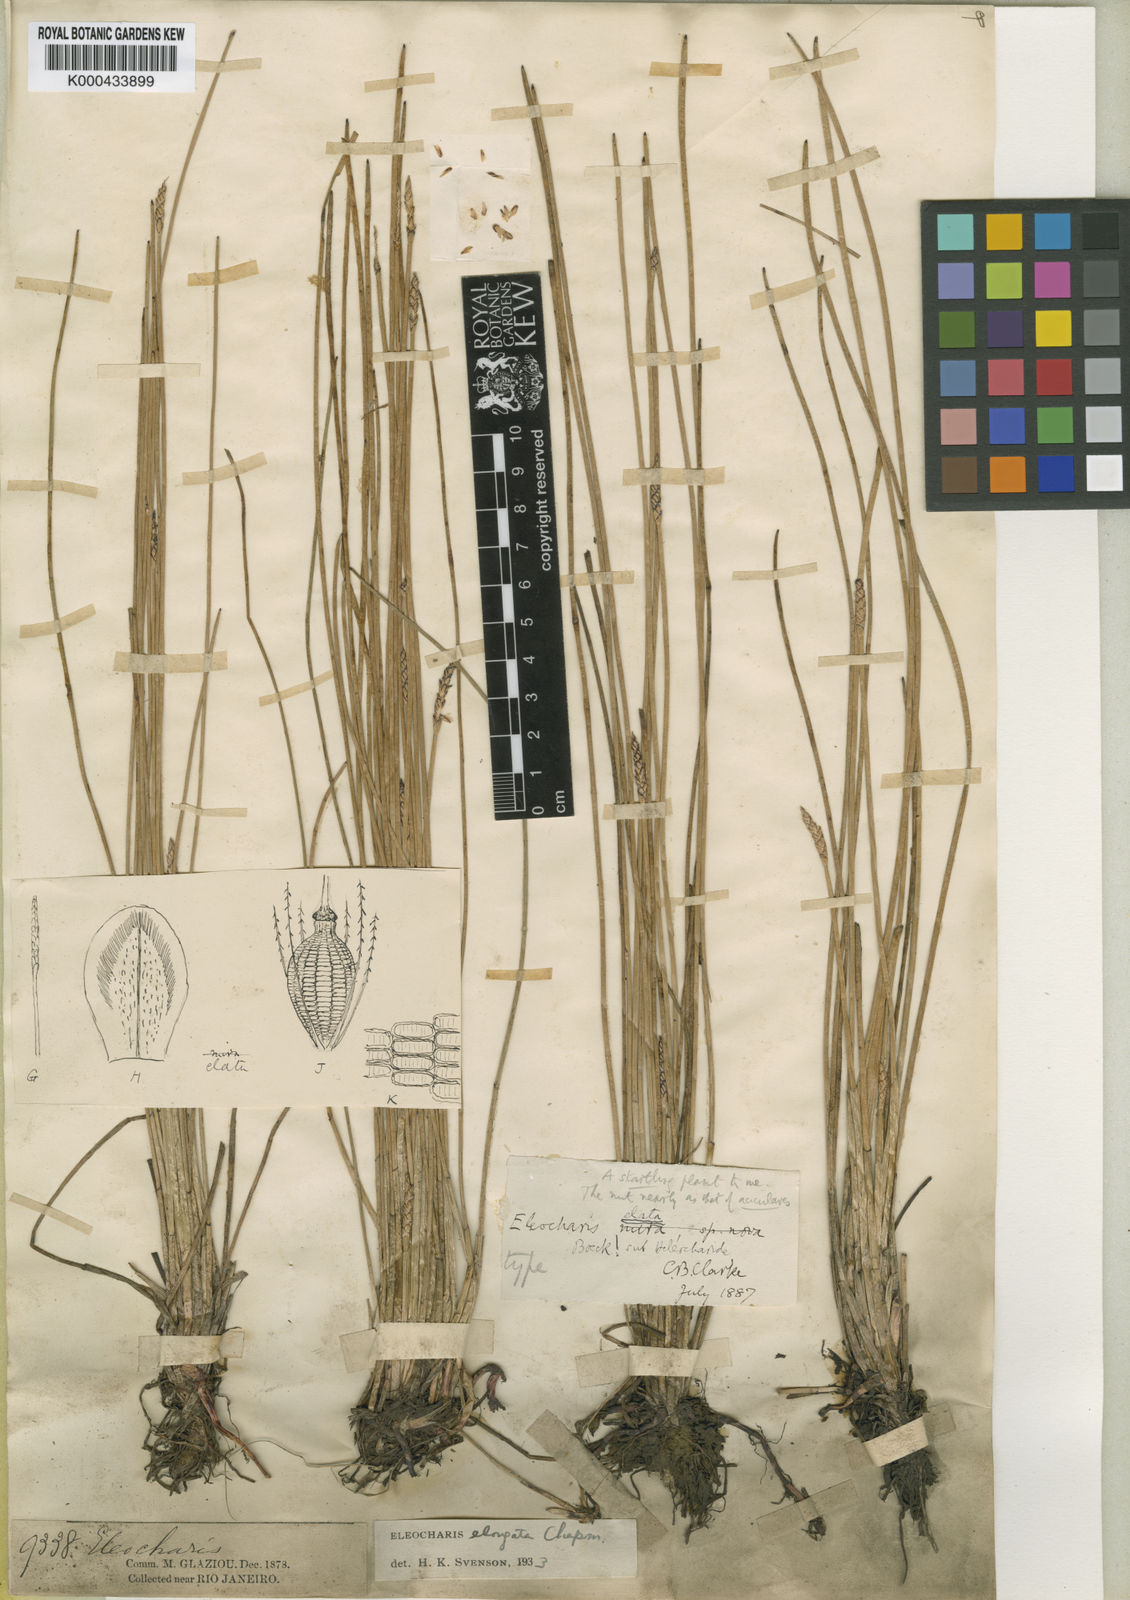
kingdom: Plantae
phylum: Tracheophyta
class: Liliopsida
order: Poales
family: Cyperaceae
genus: Eleocharis
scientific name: Eleocharis elongata
